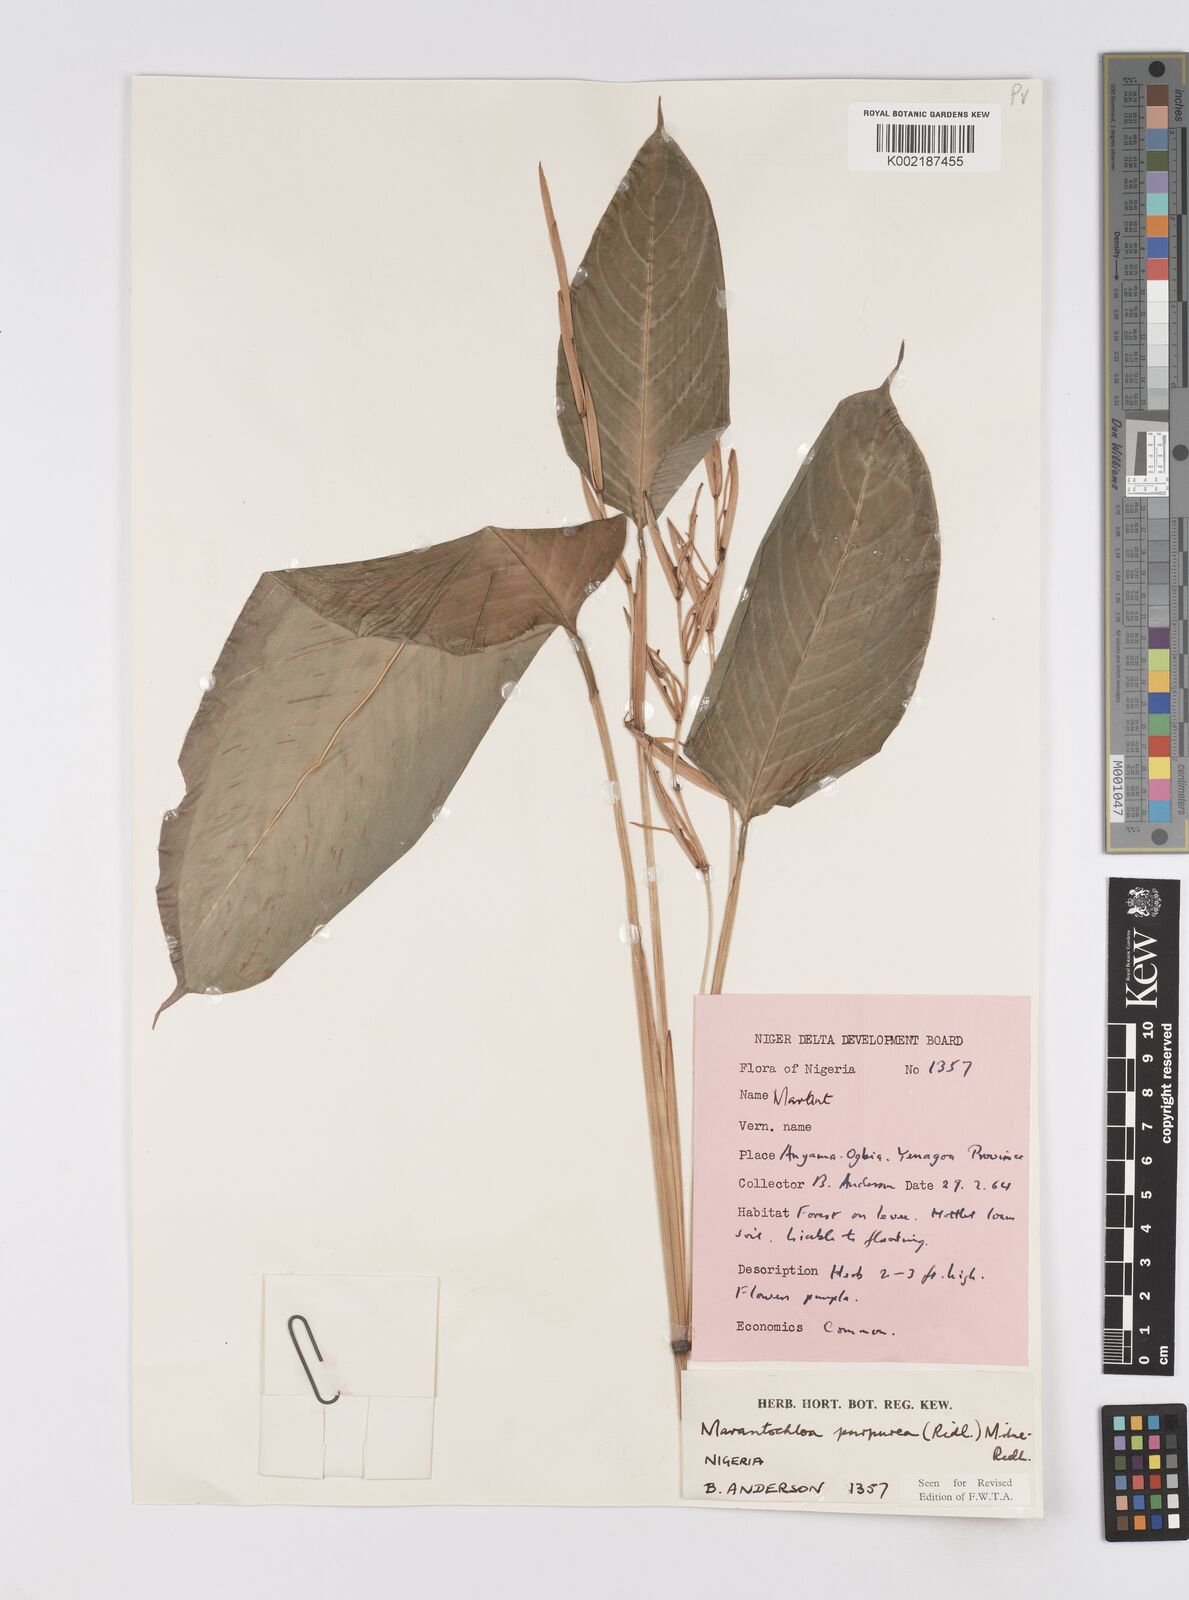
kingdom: Plantae
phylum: Tracheophyta
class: Liliopsida
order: Zingiberales
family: Marantaceae
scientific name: Marantaceae
